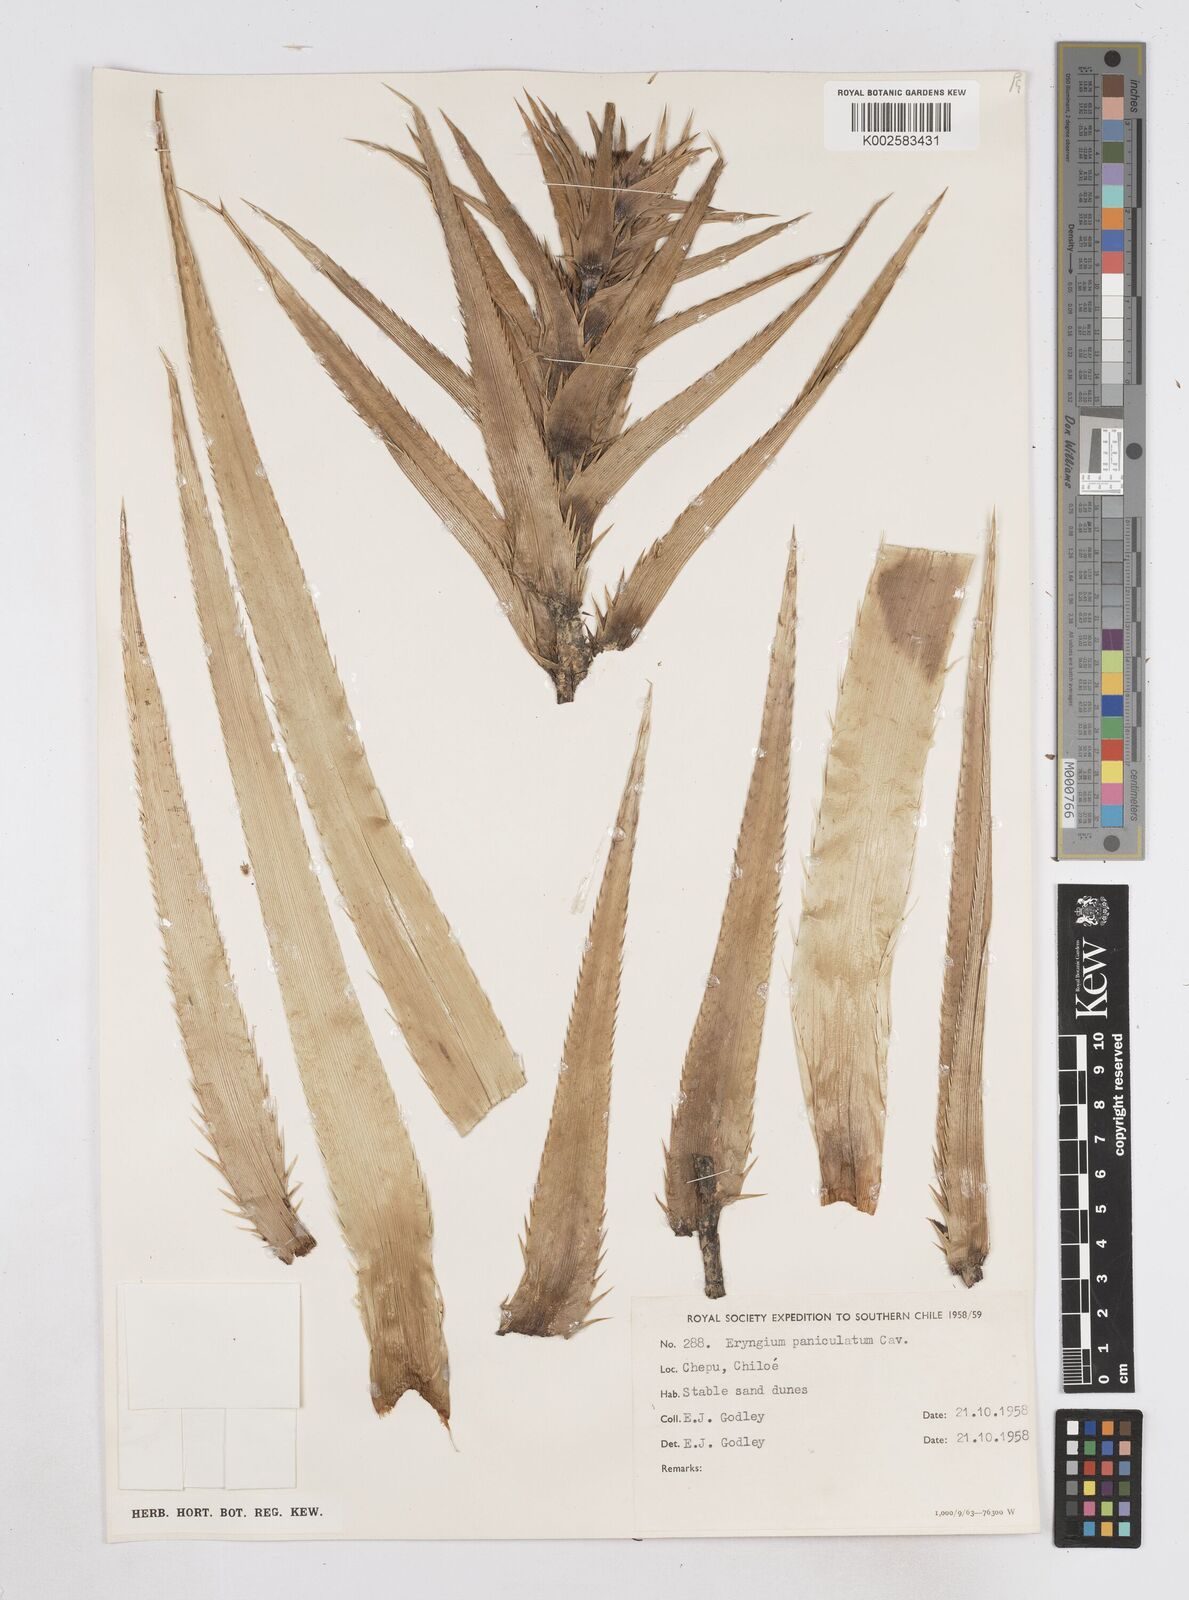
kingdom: Plantae
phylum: Tracheophyta
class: Magnoliopsida
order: Apiales
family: Apiaceae
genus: Eryngium
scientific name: Eryngium humboldtii
